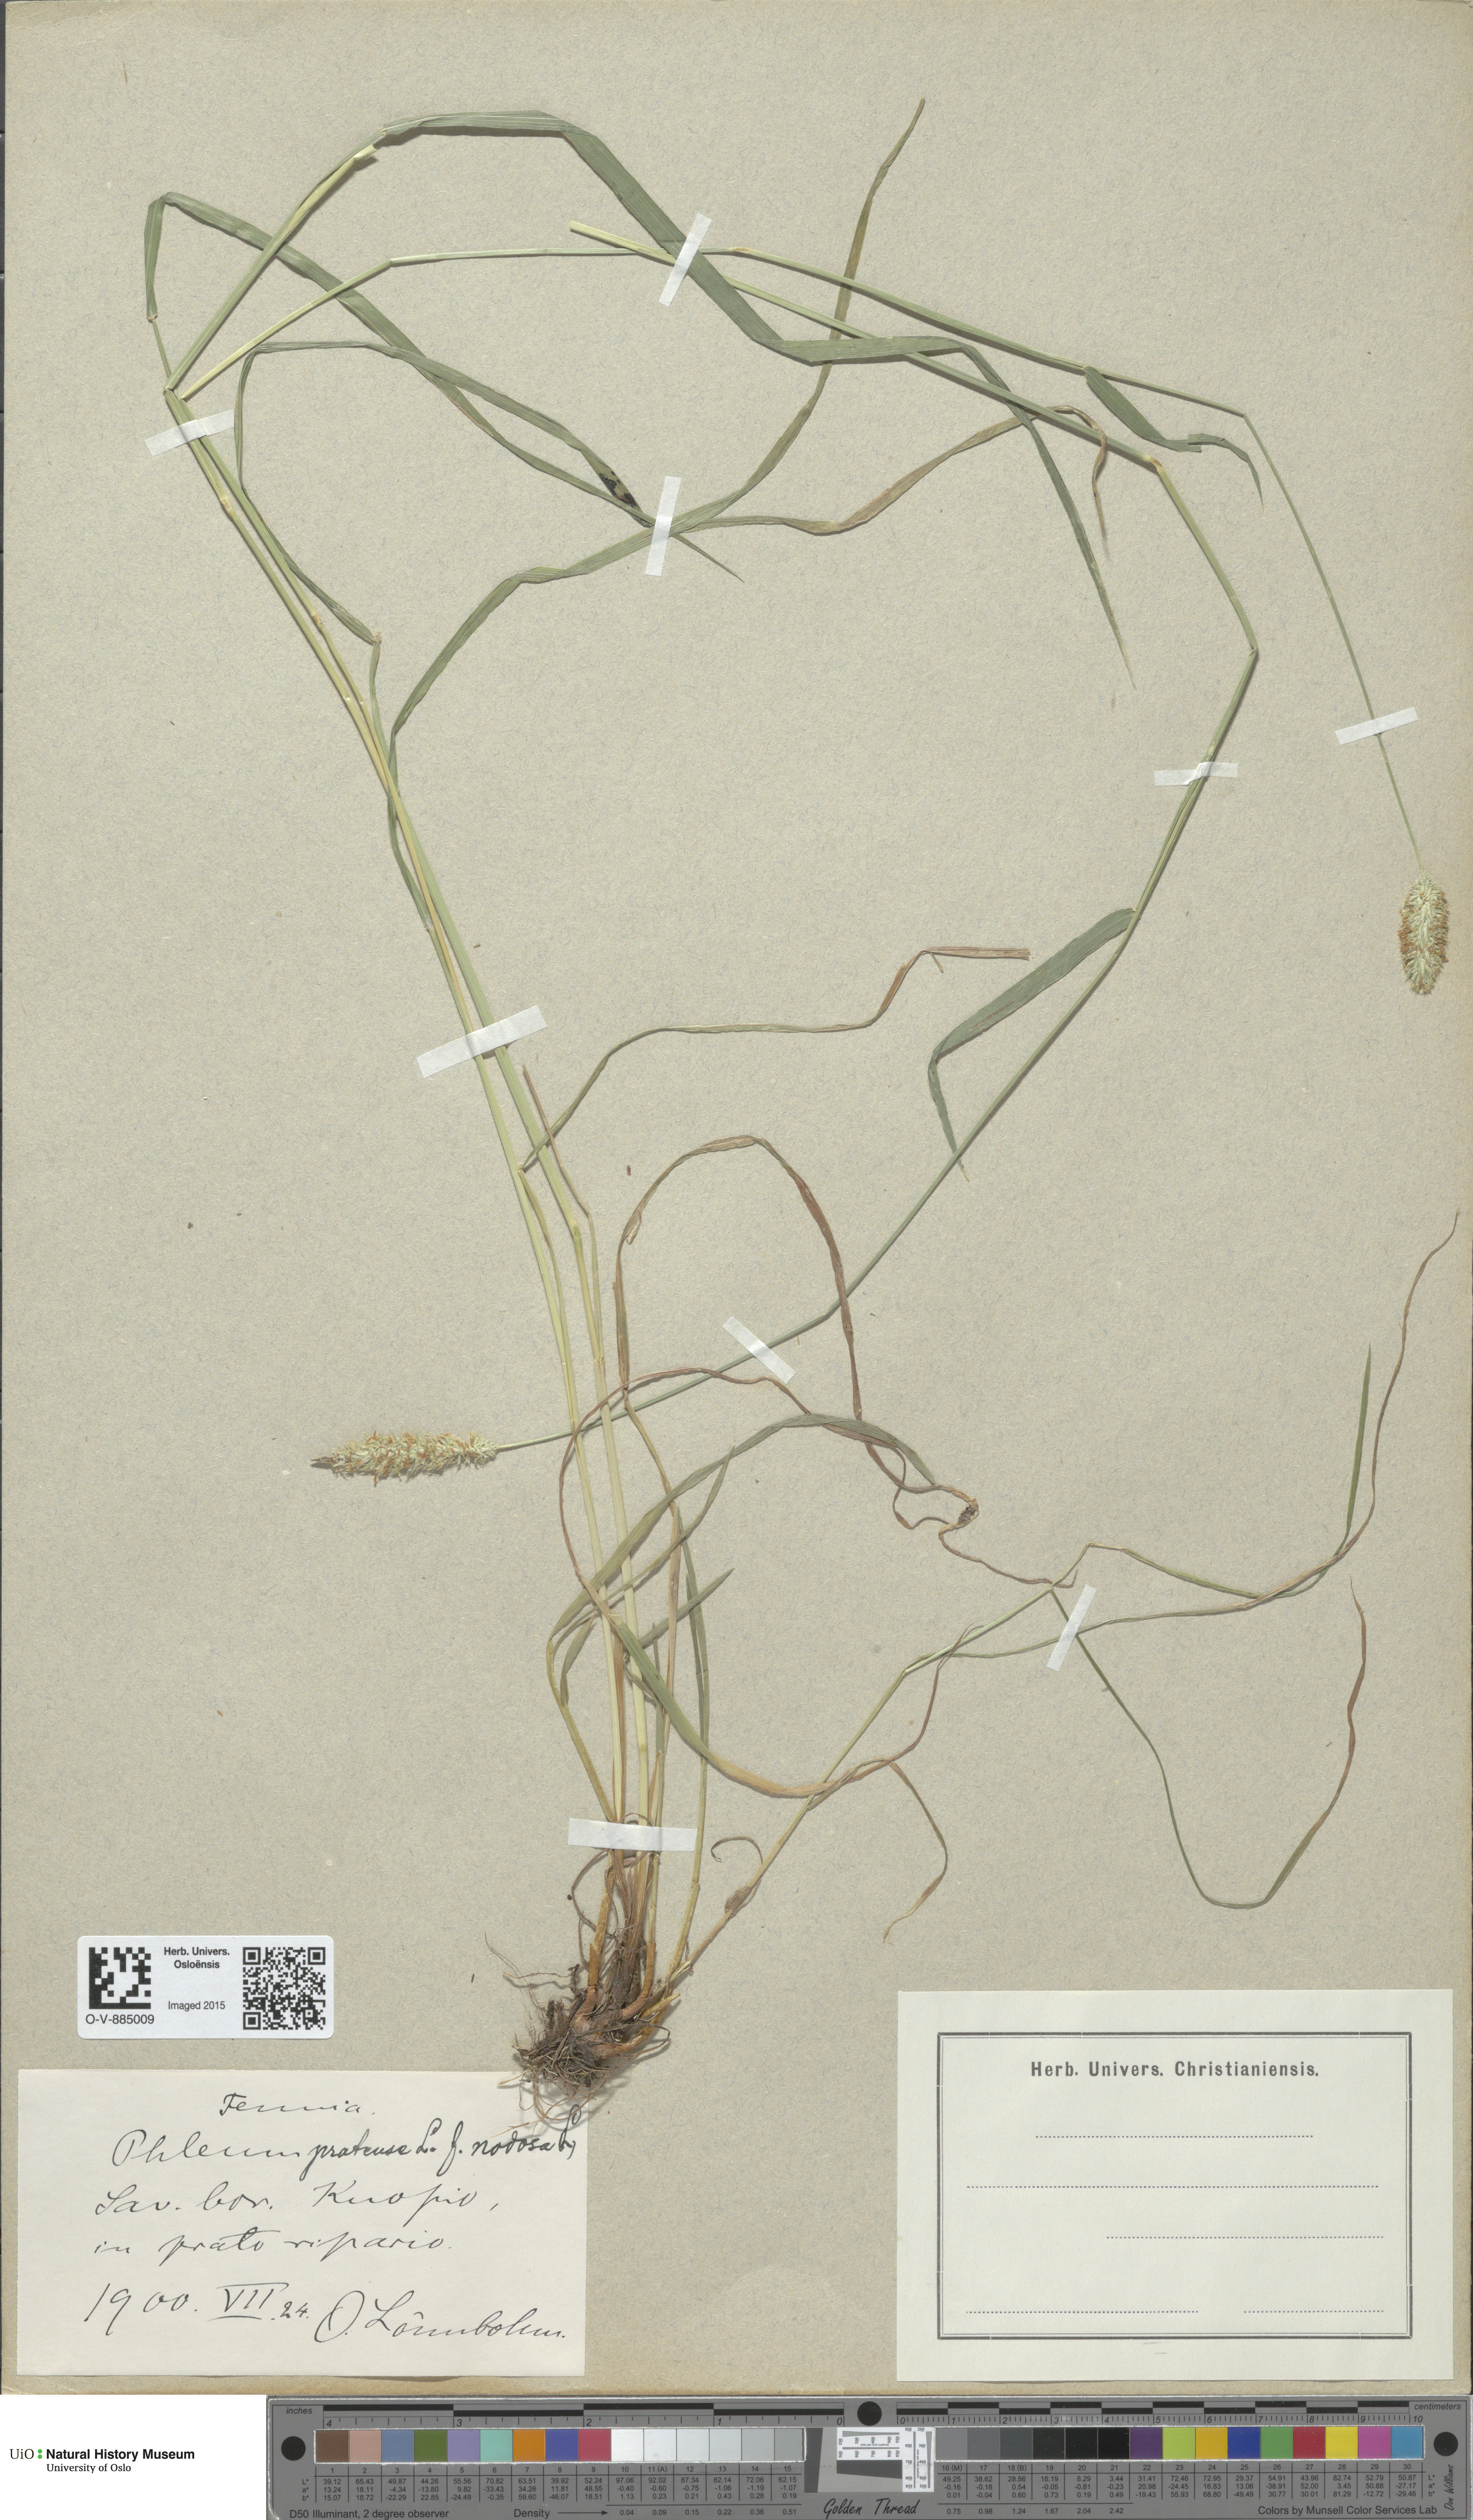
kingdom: Plantae
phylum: Tracheophyta
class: Liliopsida
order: Poales
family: Poaceae
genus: Phleum
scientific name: Phleum pratense
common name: Timothy grass
